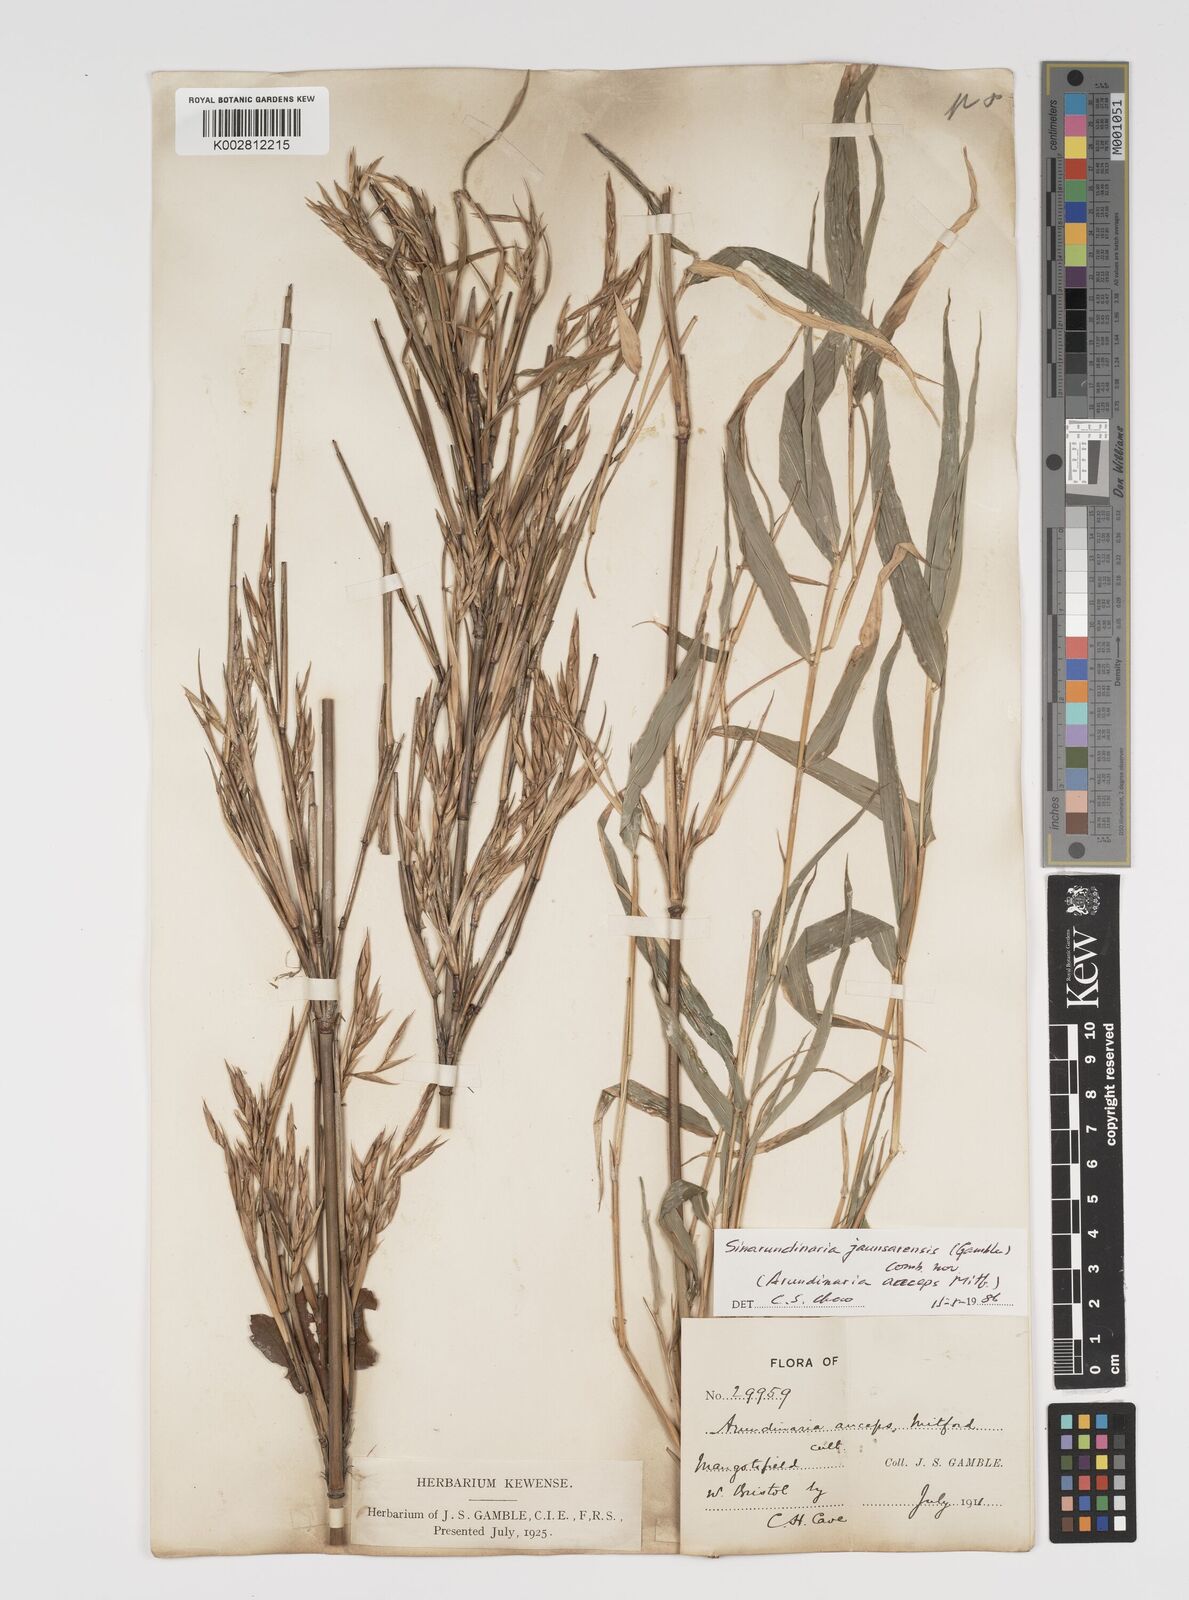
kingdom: Plantae
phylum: Tracheophyta
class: Liliopsida
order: Poales
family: Poaceae
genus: Yushania
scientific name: Yushania anceps
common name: Indian fountain-bamboo
